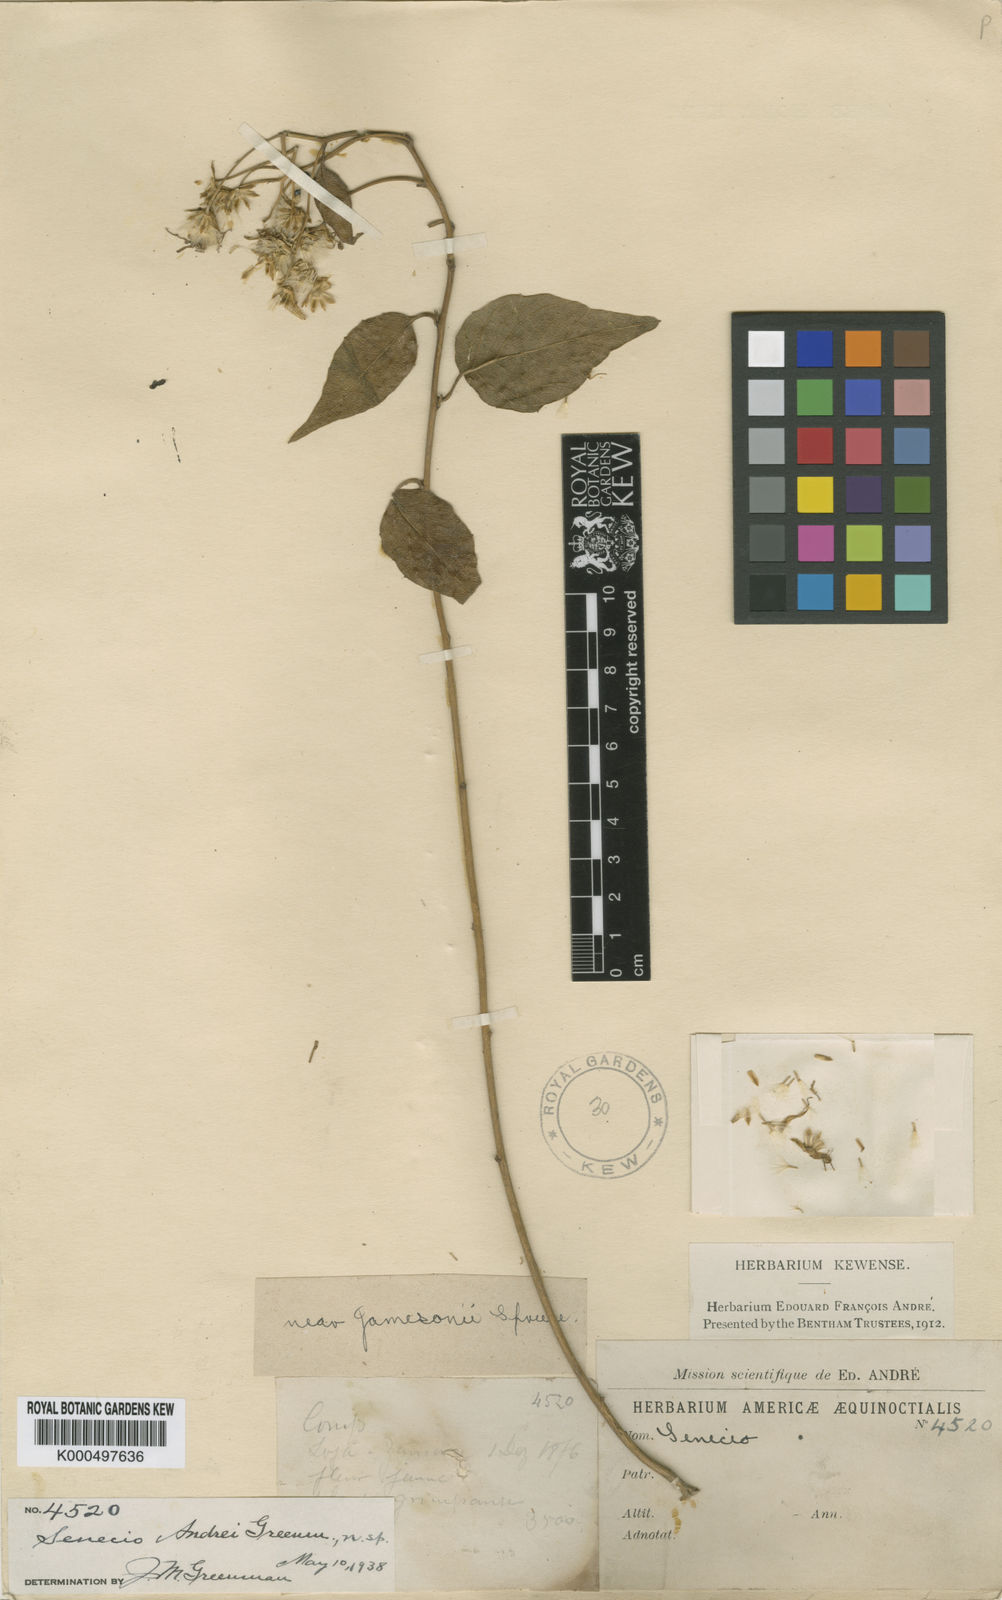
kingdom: Plantae
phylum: Tracheophyta
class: Magnoliopsida
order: Asterales
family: Asteraceae
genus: Pentacalia
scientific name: Pentacalia andrei
